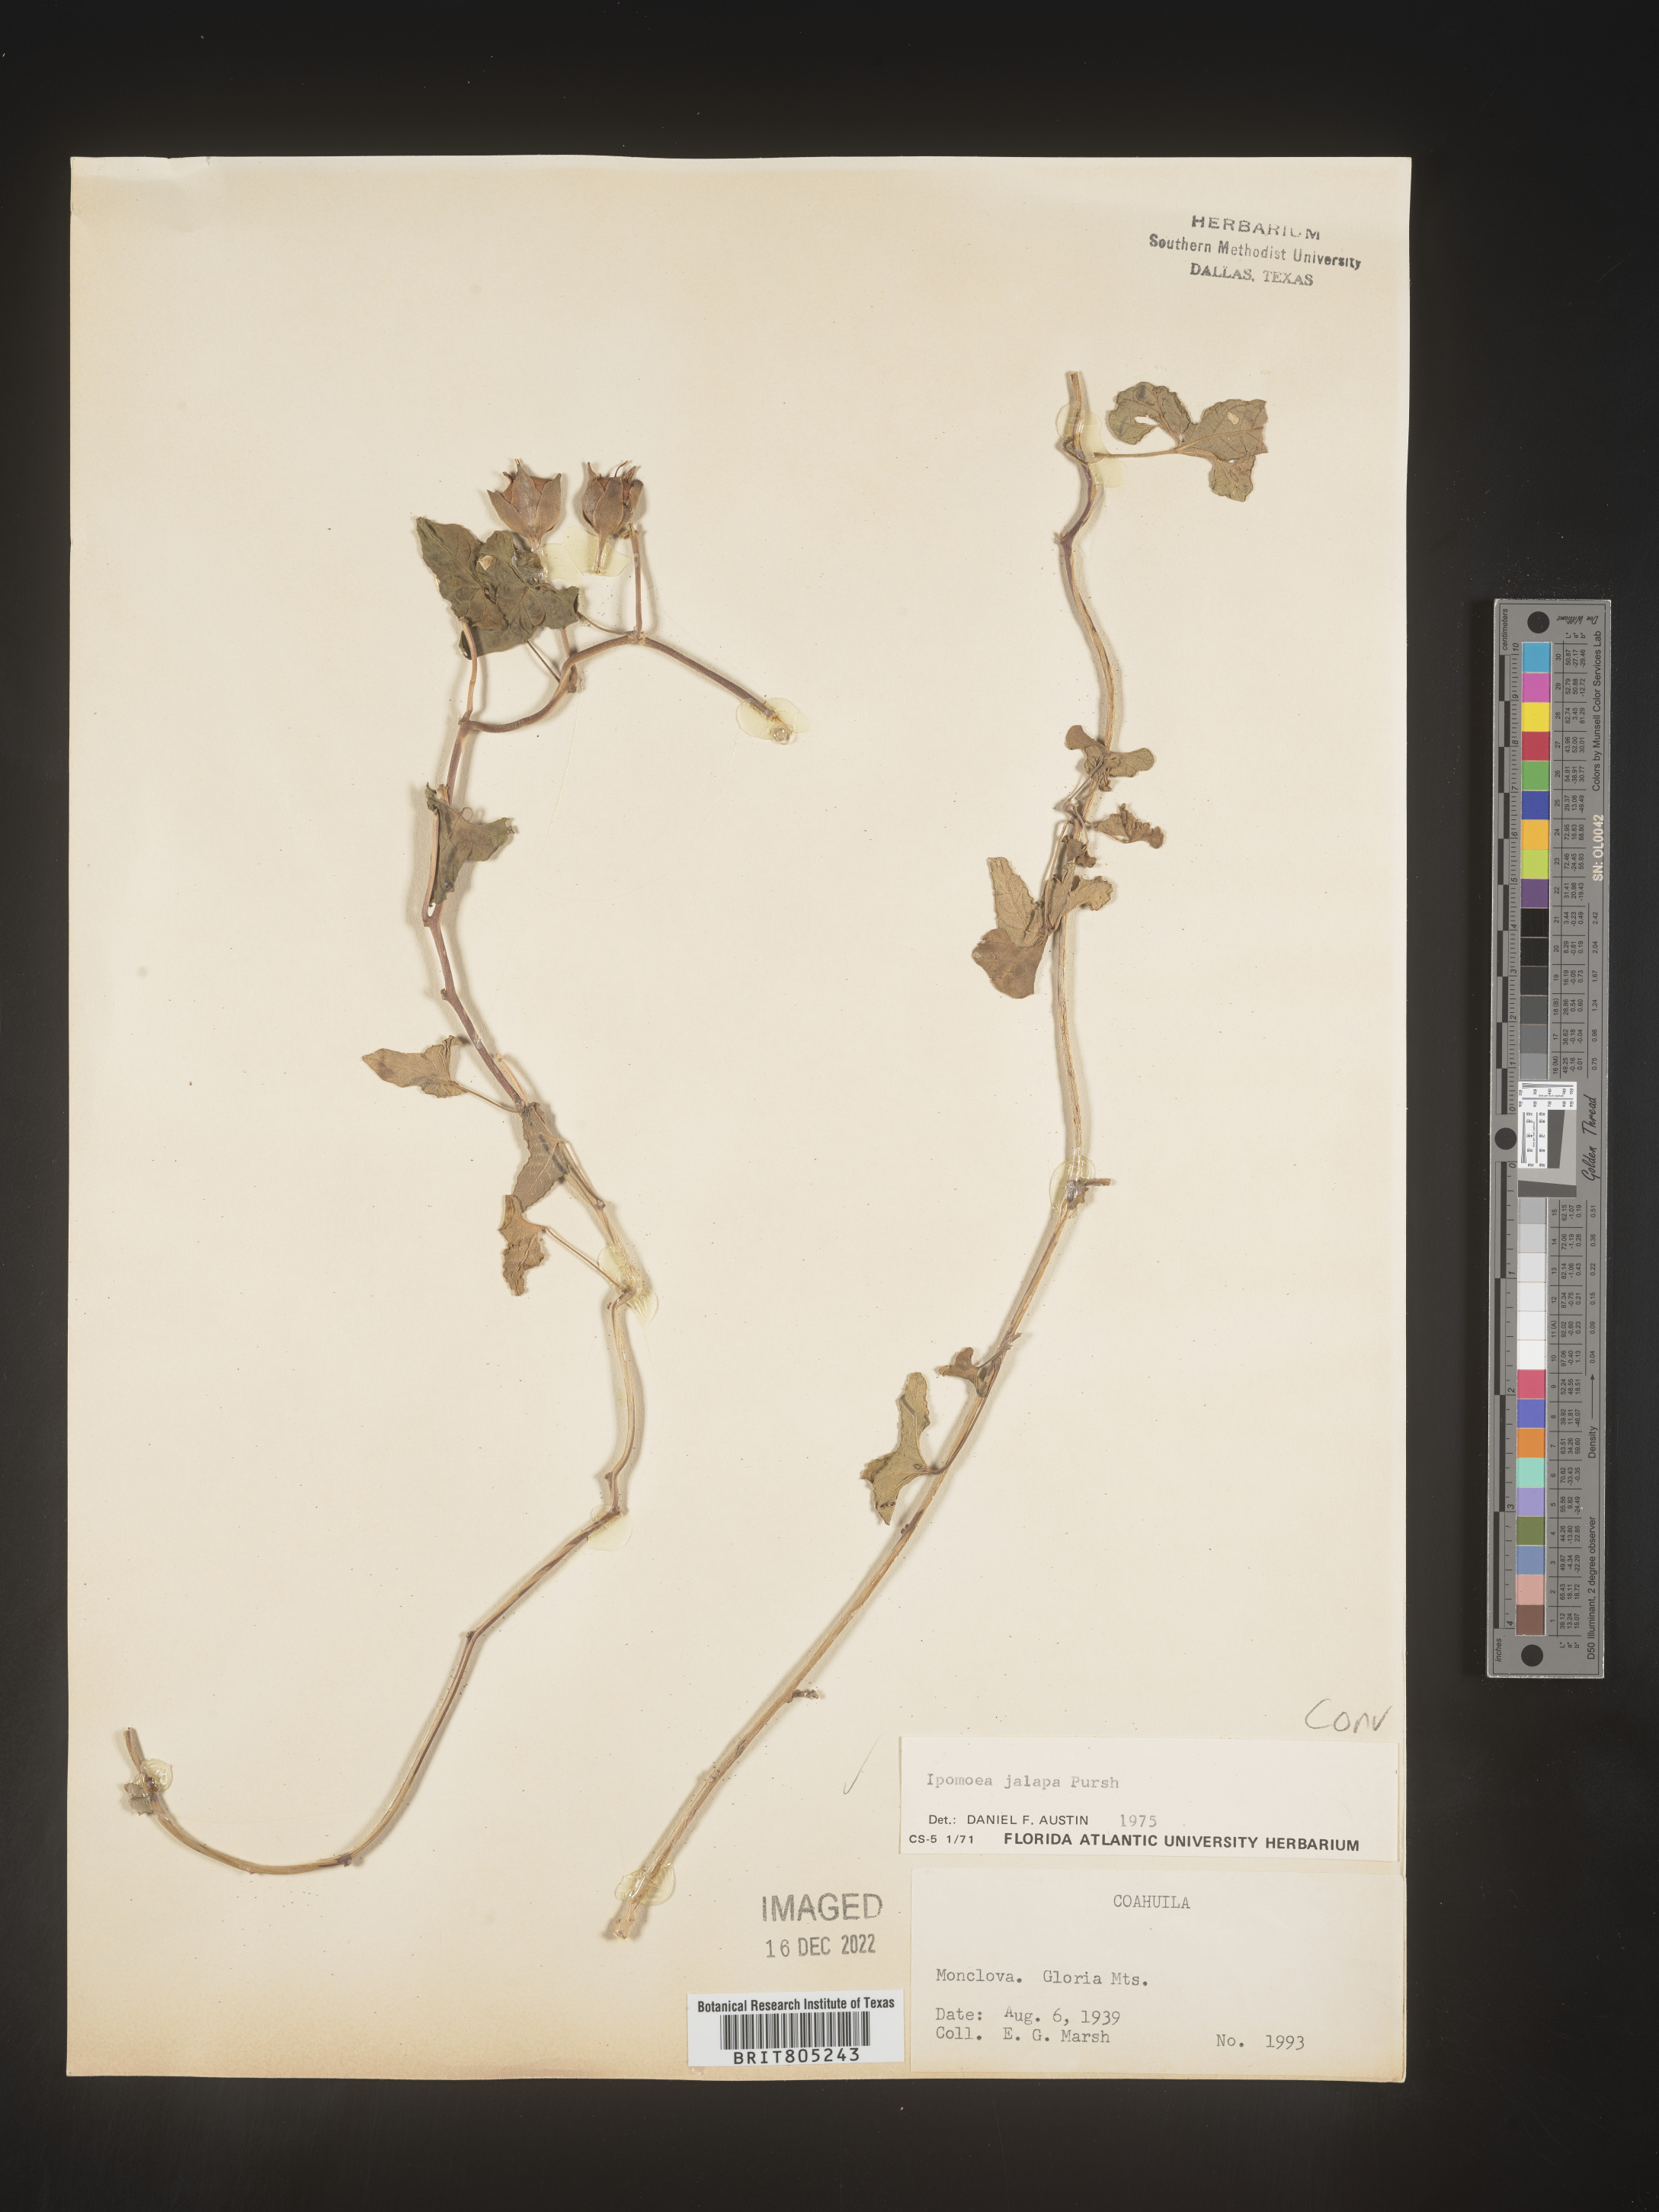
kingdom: Plantae
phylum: Tracheophyta
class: Magnoliopsida
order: Solanales
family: Convolvulaceae
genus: Ipomoea
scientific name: Ipomoea
